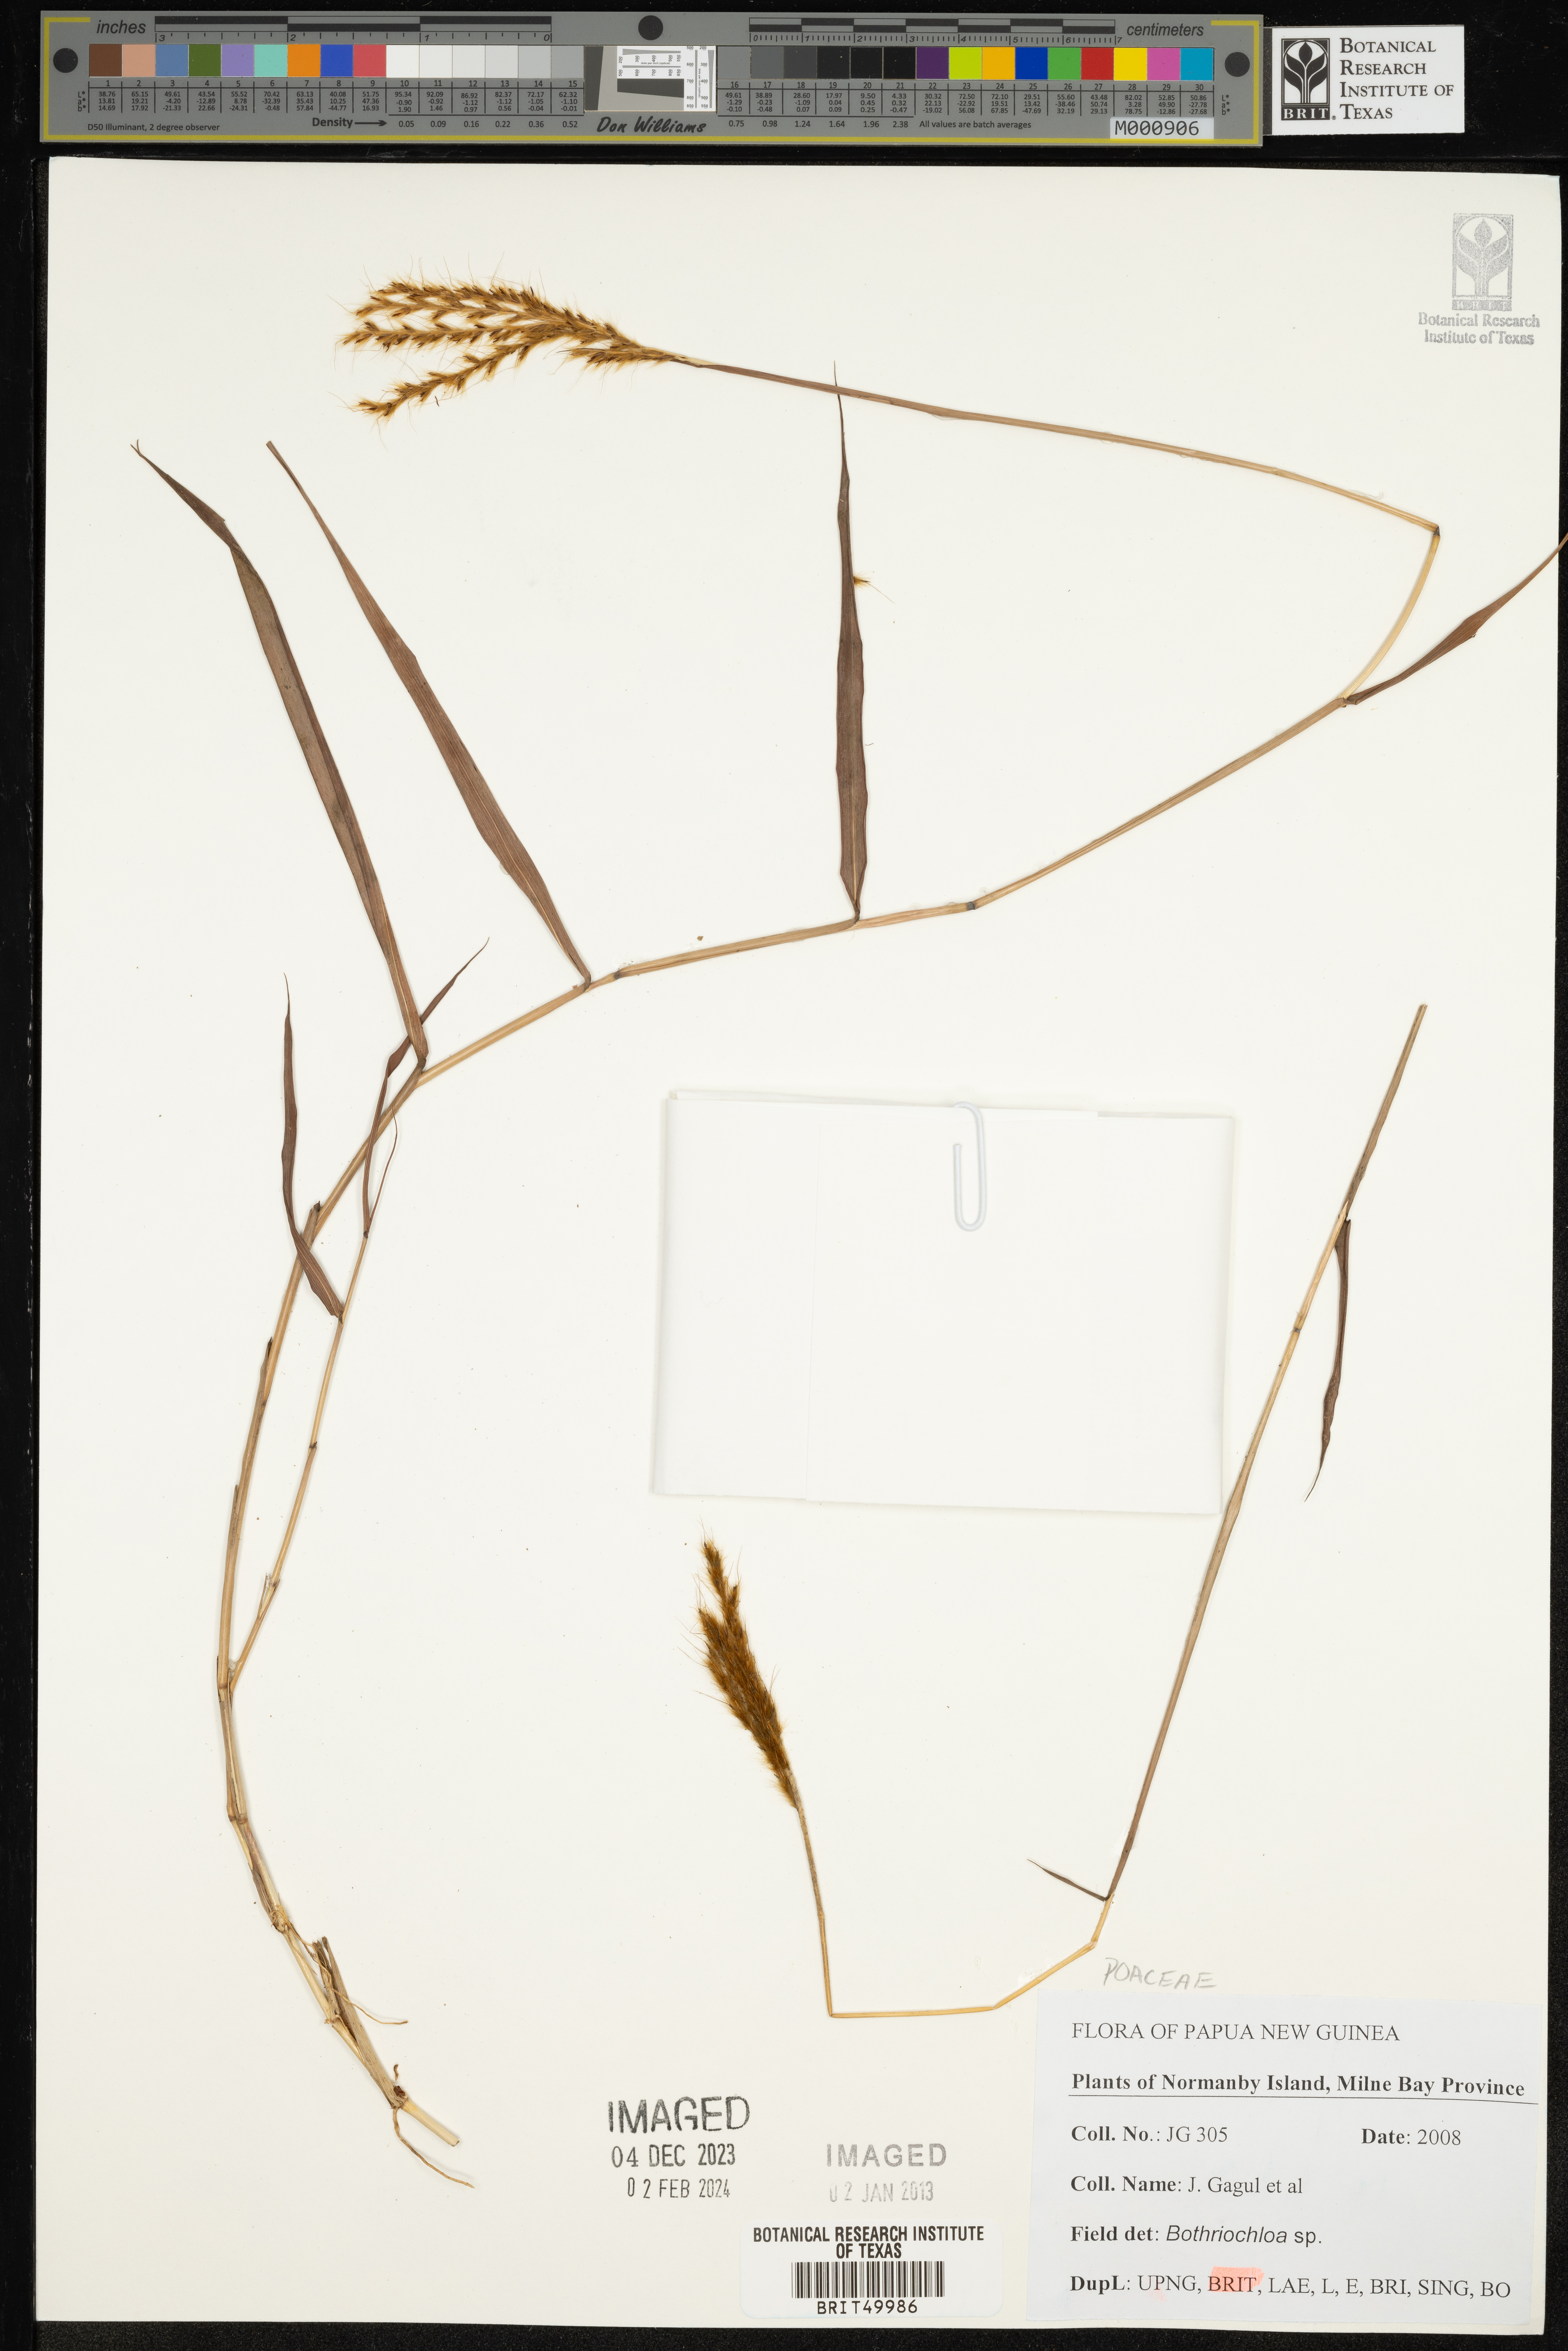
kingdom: Plantae
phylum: Tracheophyta
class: Liliopsida
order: Poales
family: Poaceae
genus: Bothriochloa
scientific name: Bothriochloa
